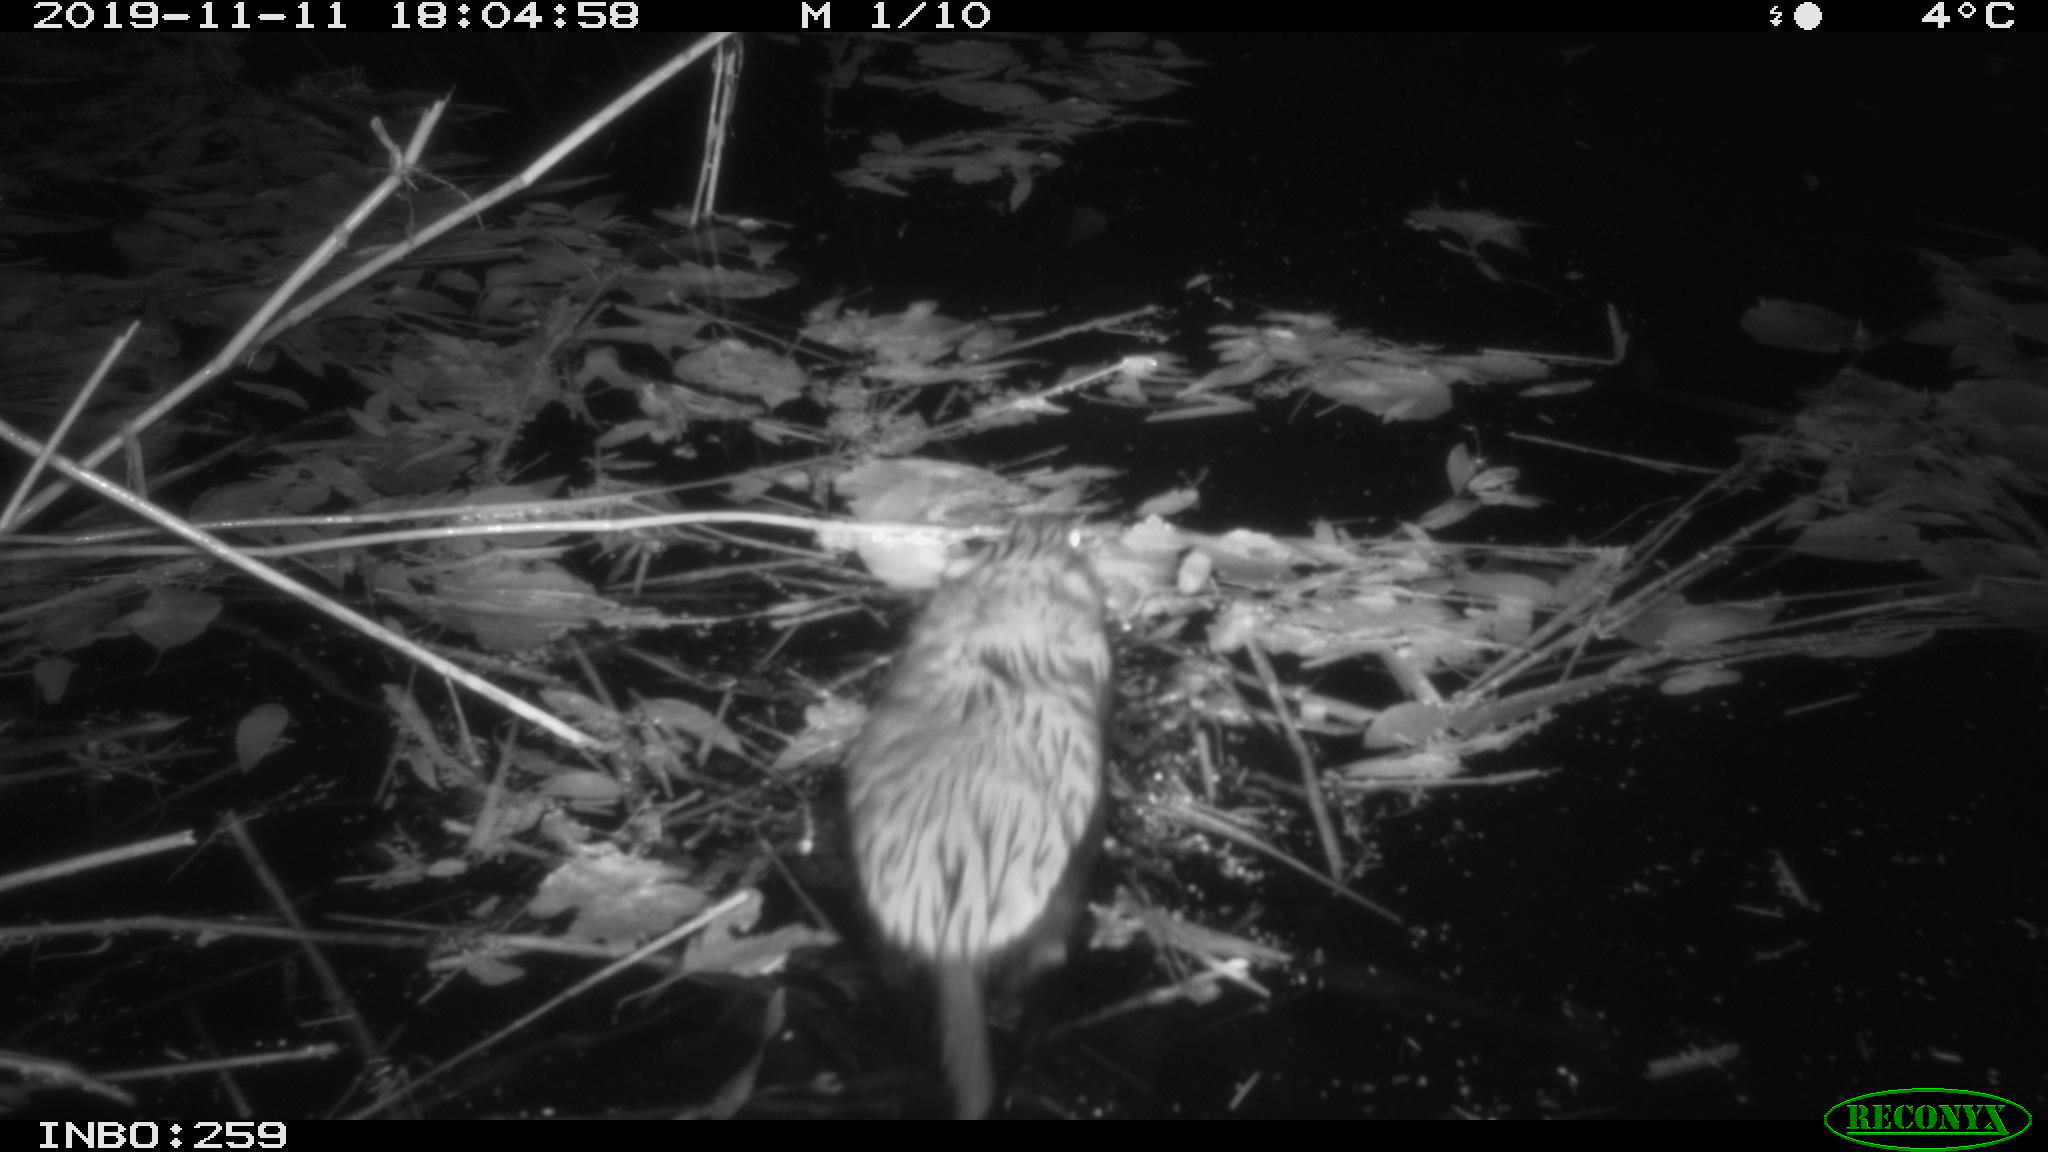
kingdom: Animalia
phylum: Chordata
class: Mammalia
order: Rodentia
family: Cricetidae
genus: Ondatra
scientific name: Ondatra zibethicus
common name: Muskrat
